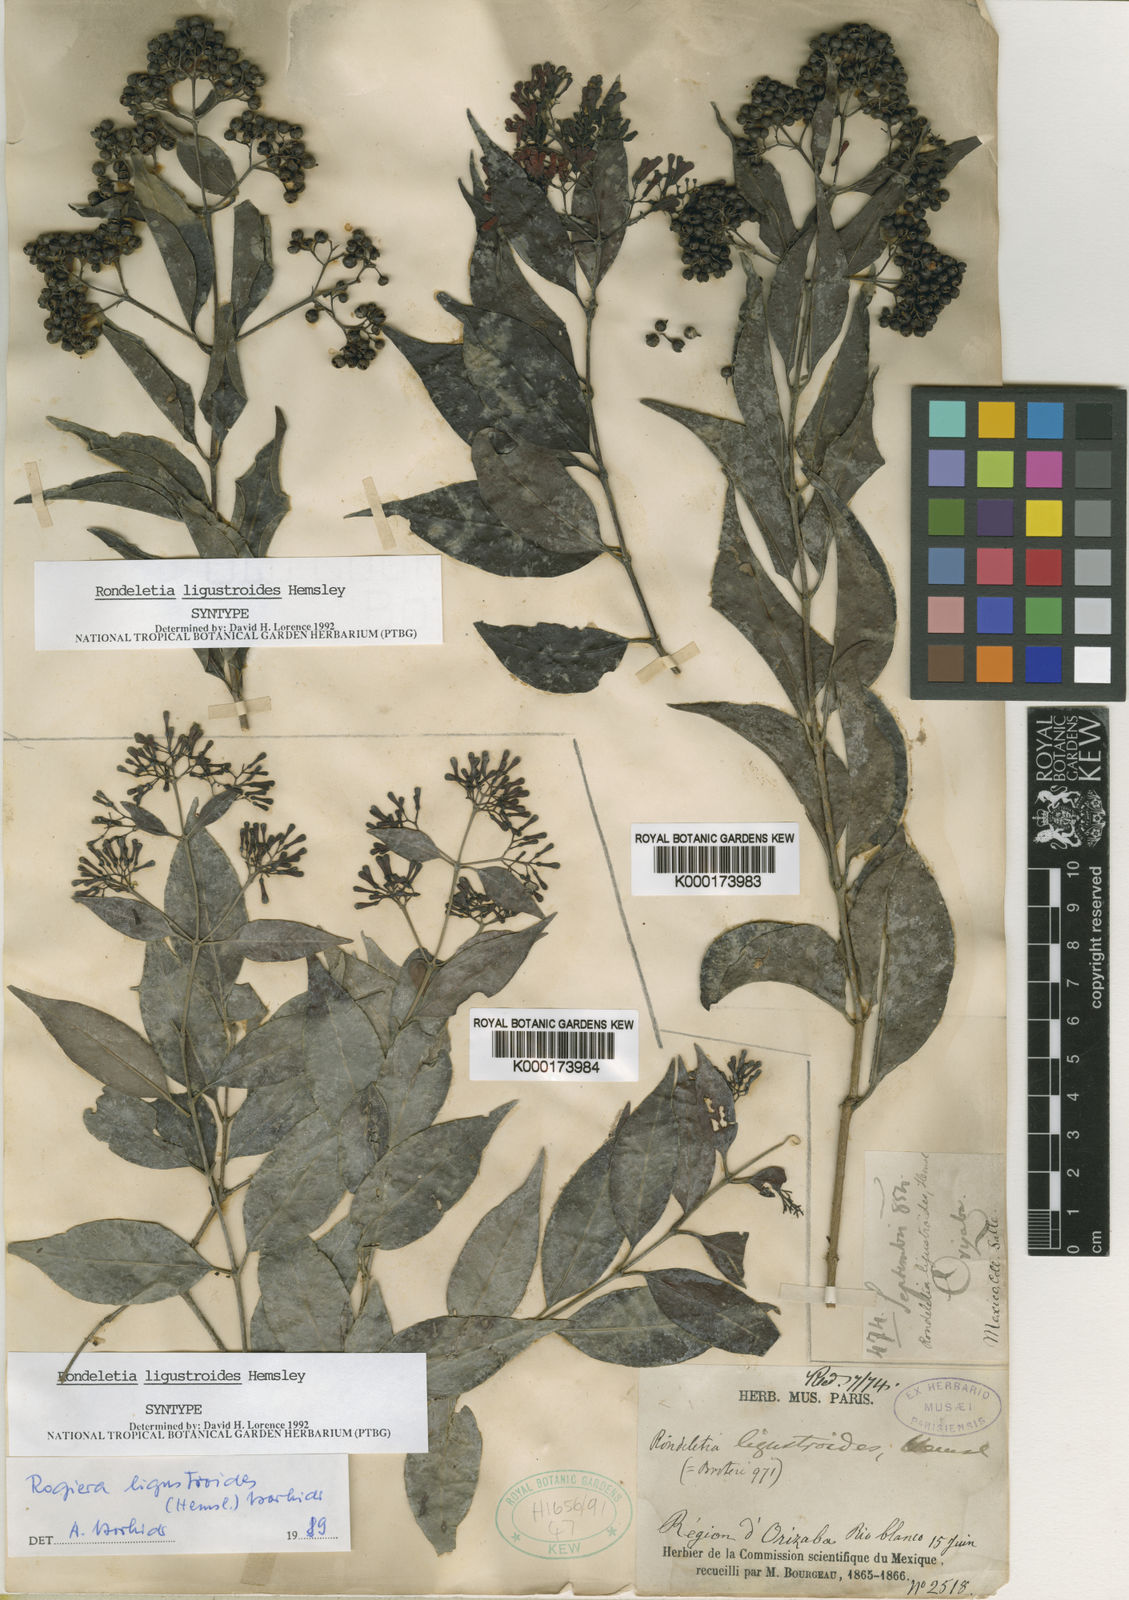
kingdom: Plantae
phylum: Tracheophyta
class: Magnoliopsida
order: Gentianales
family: Rubiaceae
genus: Rogiera
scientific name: Rogiera ligustroides
